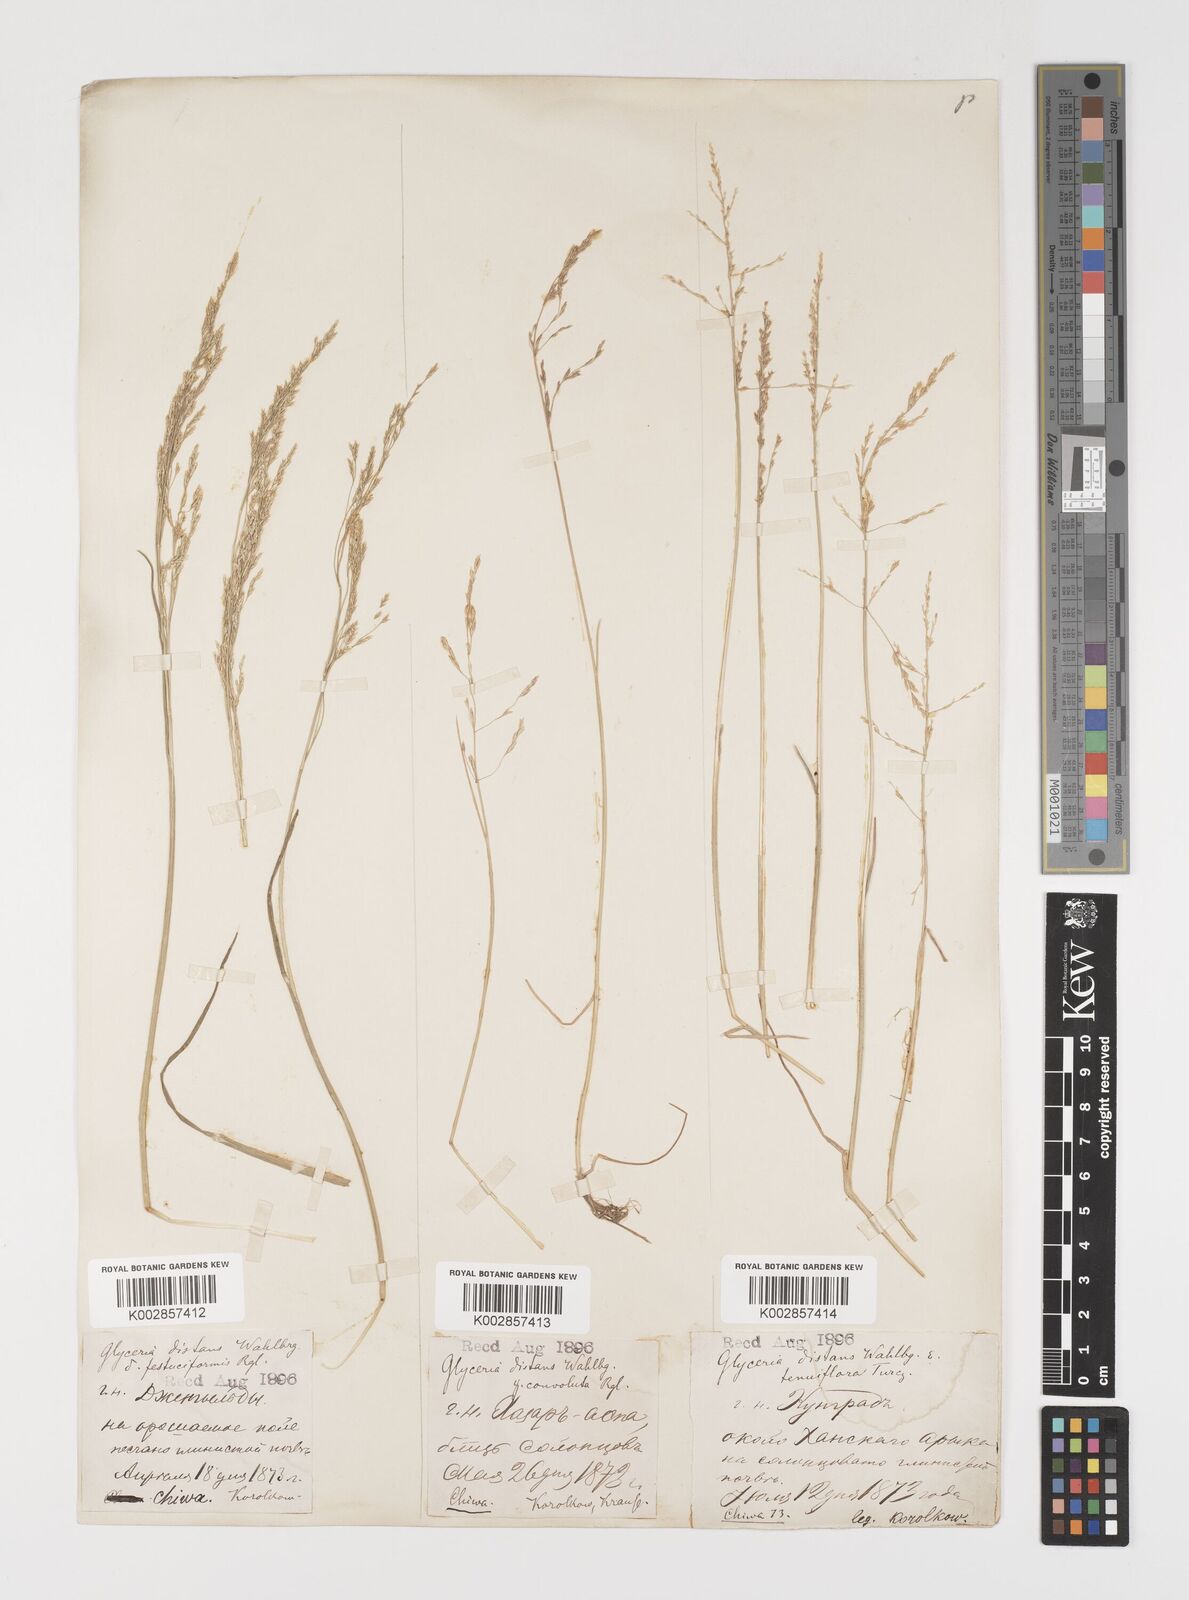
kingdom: Plantae
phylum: Tracheophyta
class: Liliopsida
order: Poales
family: Poaceae
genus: Puccinellia
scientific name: Puccinellia distans
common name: Weeping alkaligrass
